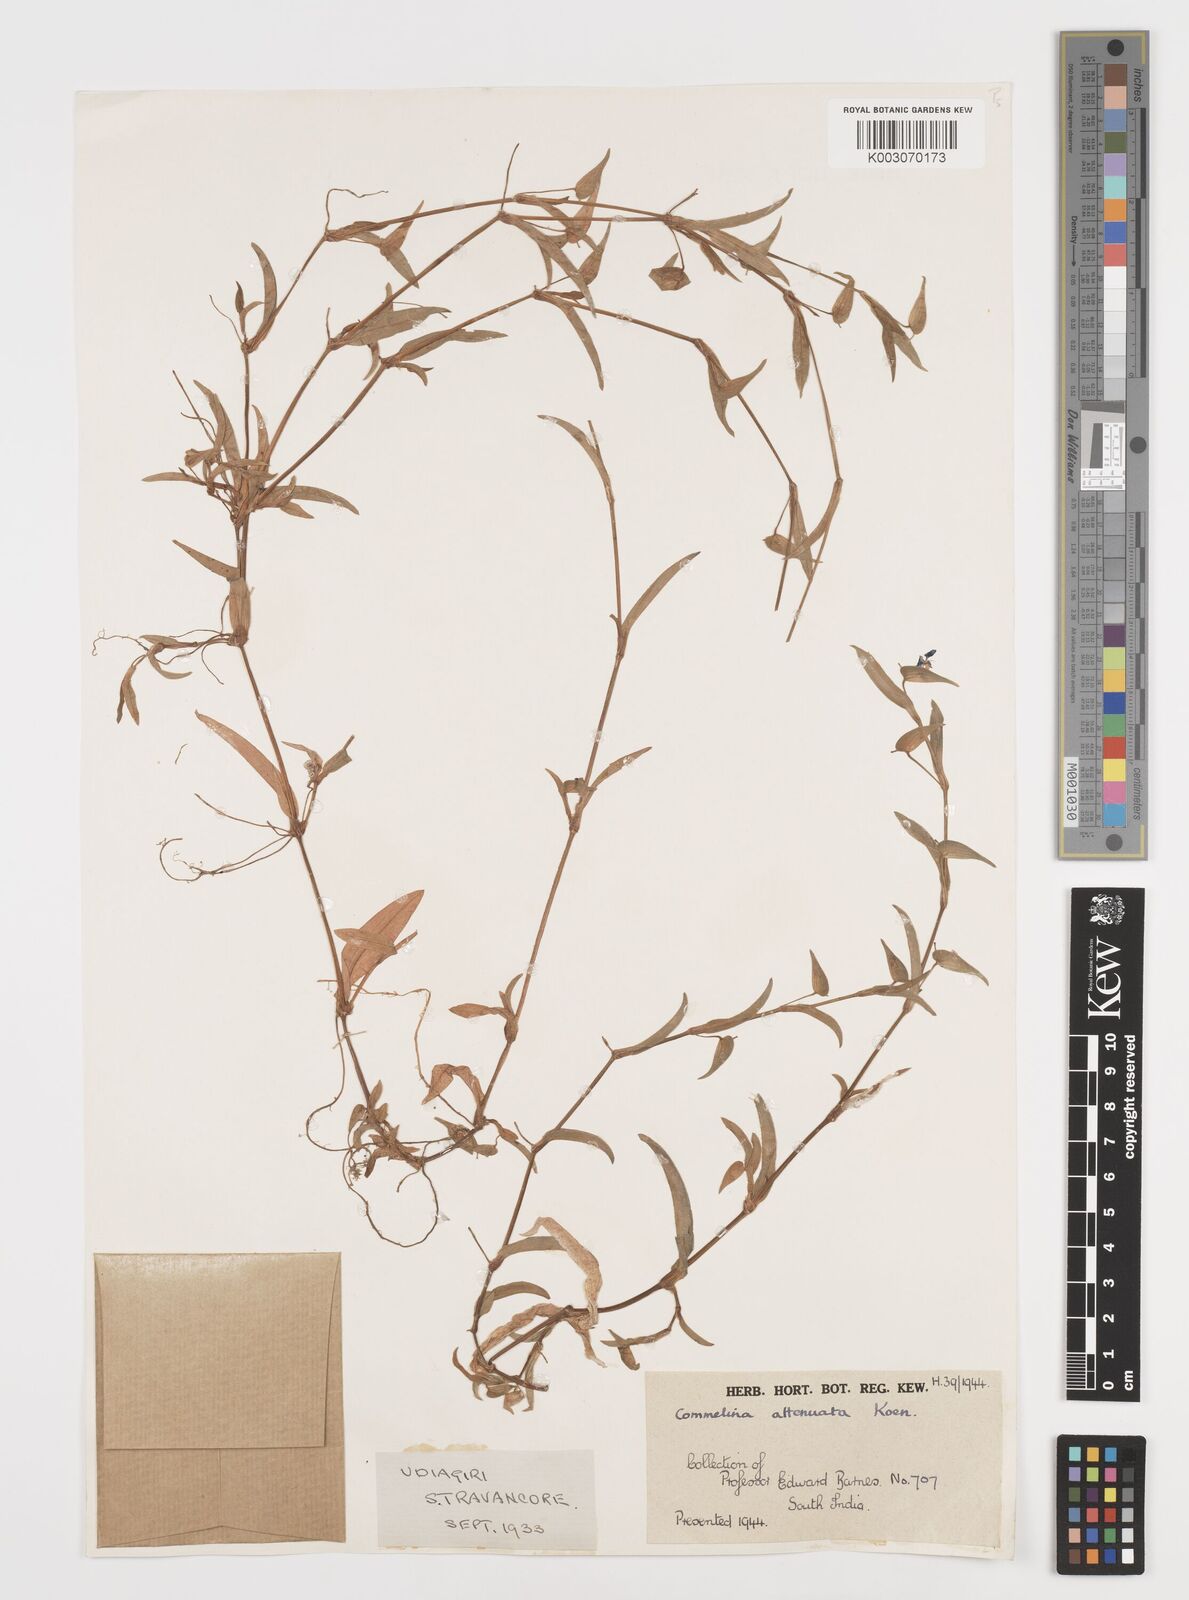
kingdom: Plantae
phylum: Tracheophyta
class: Liliopsida
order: Commelinales
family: Commelinaceae
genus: Commelina
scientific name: Commelina attenuata
